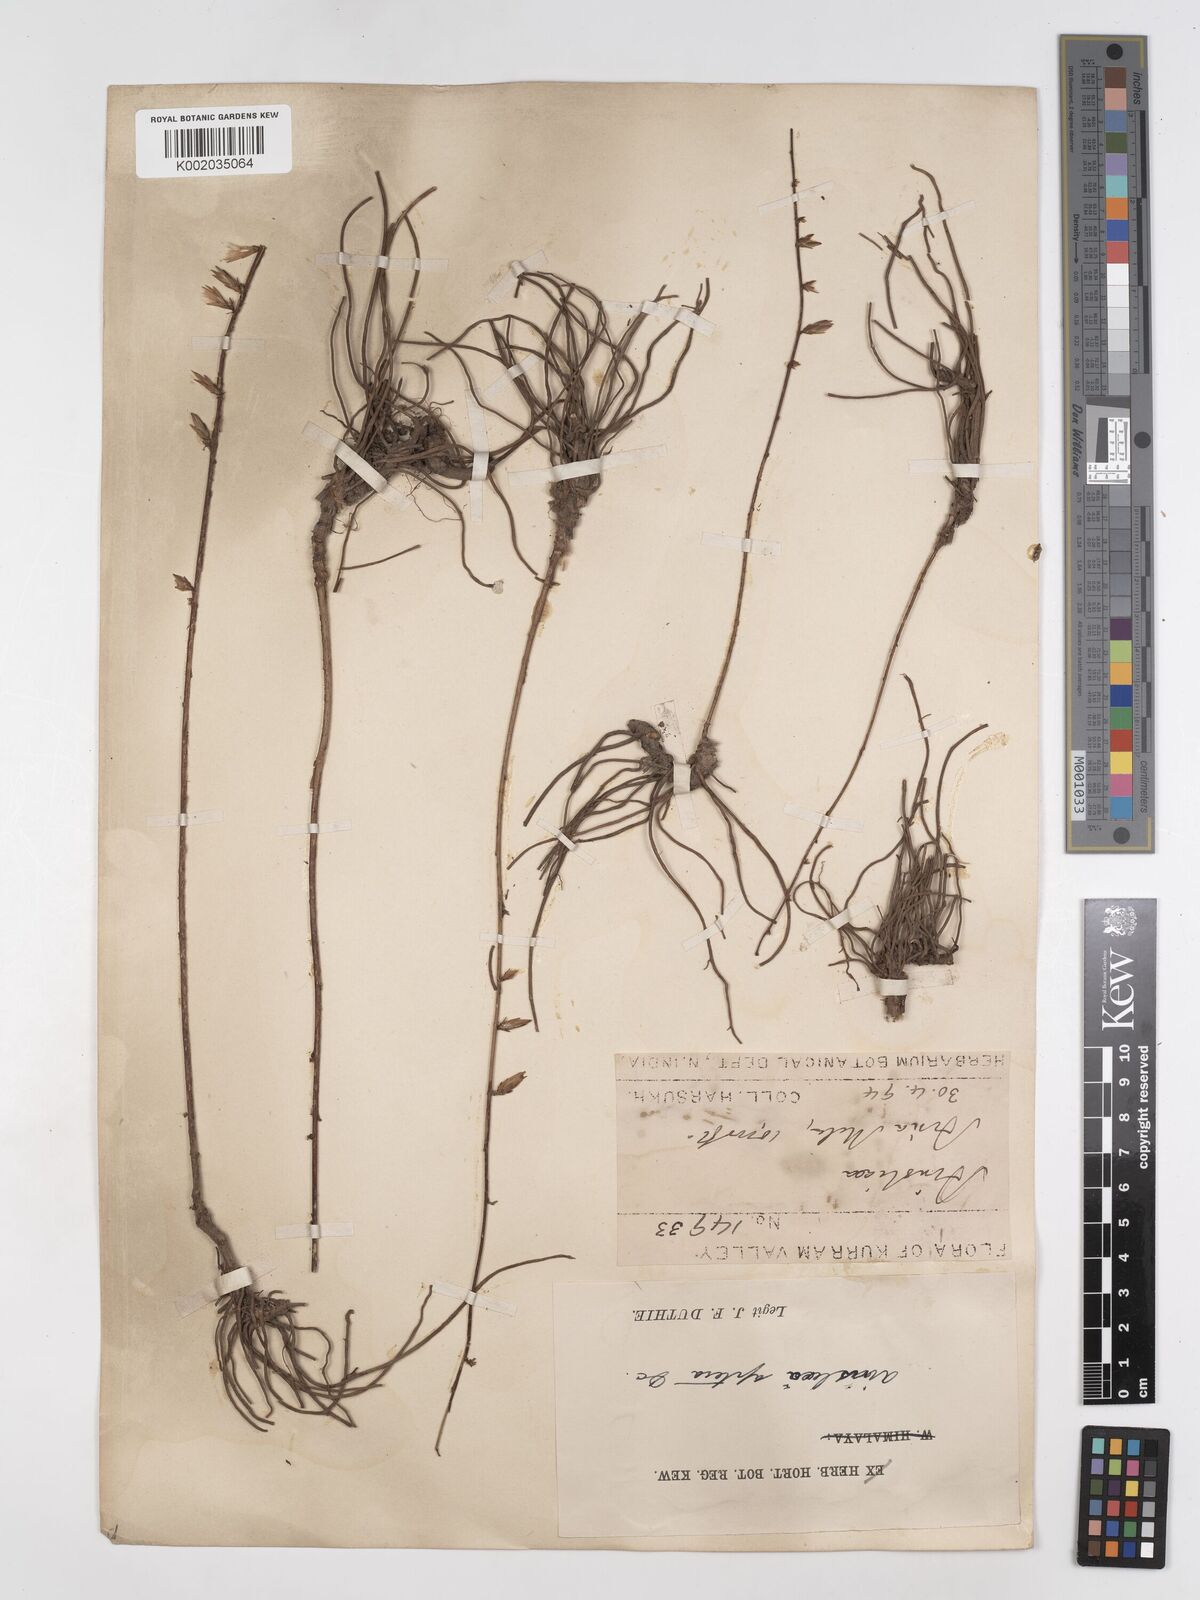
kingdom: Plantae
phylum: Tracheophyta
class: Magnoliopsida
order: Asterales
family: Asteraceae
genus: Ainsliaea
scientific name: Ainsliaea aptera
